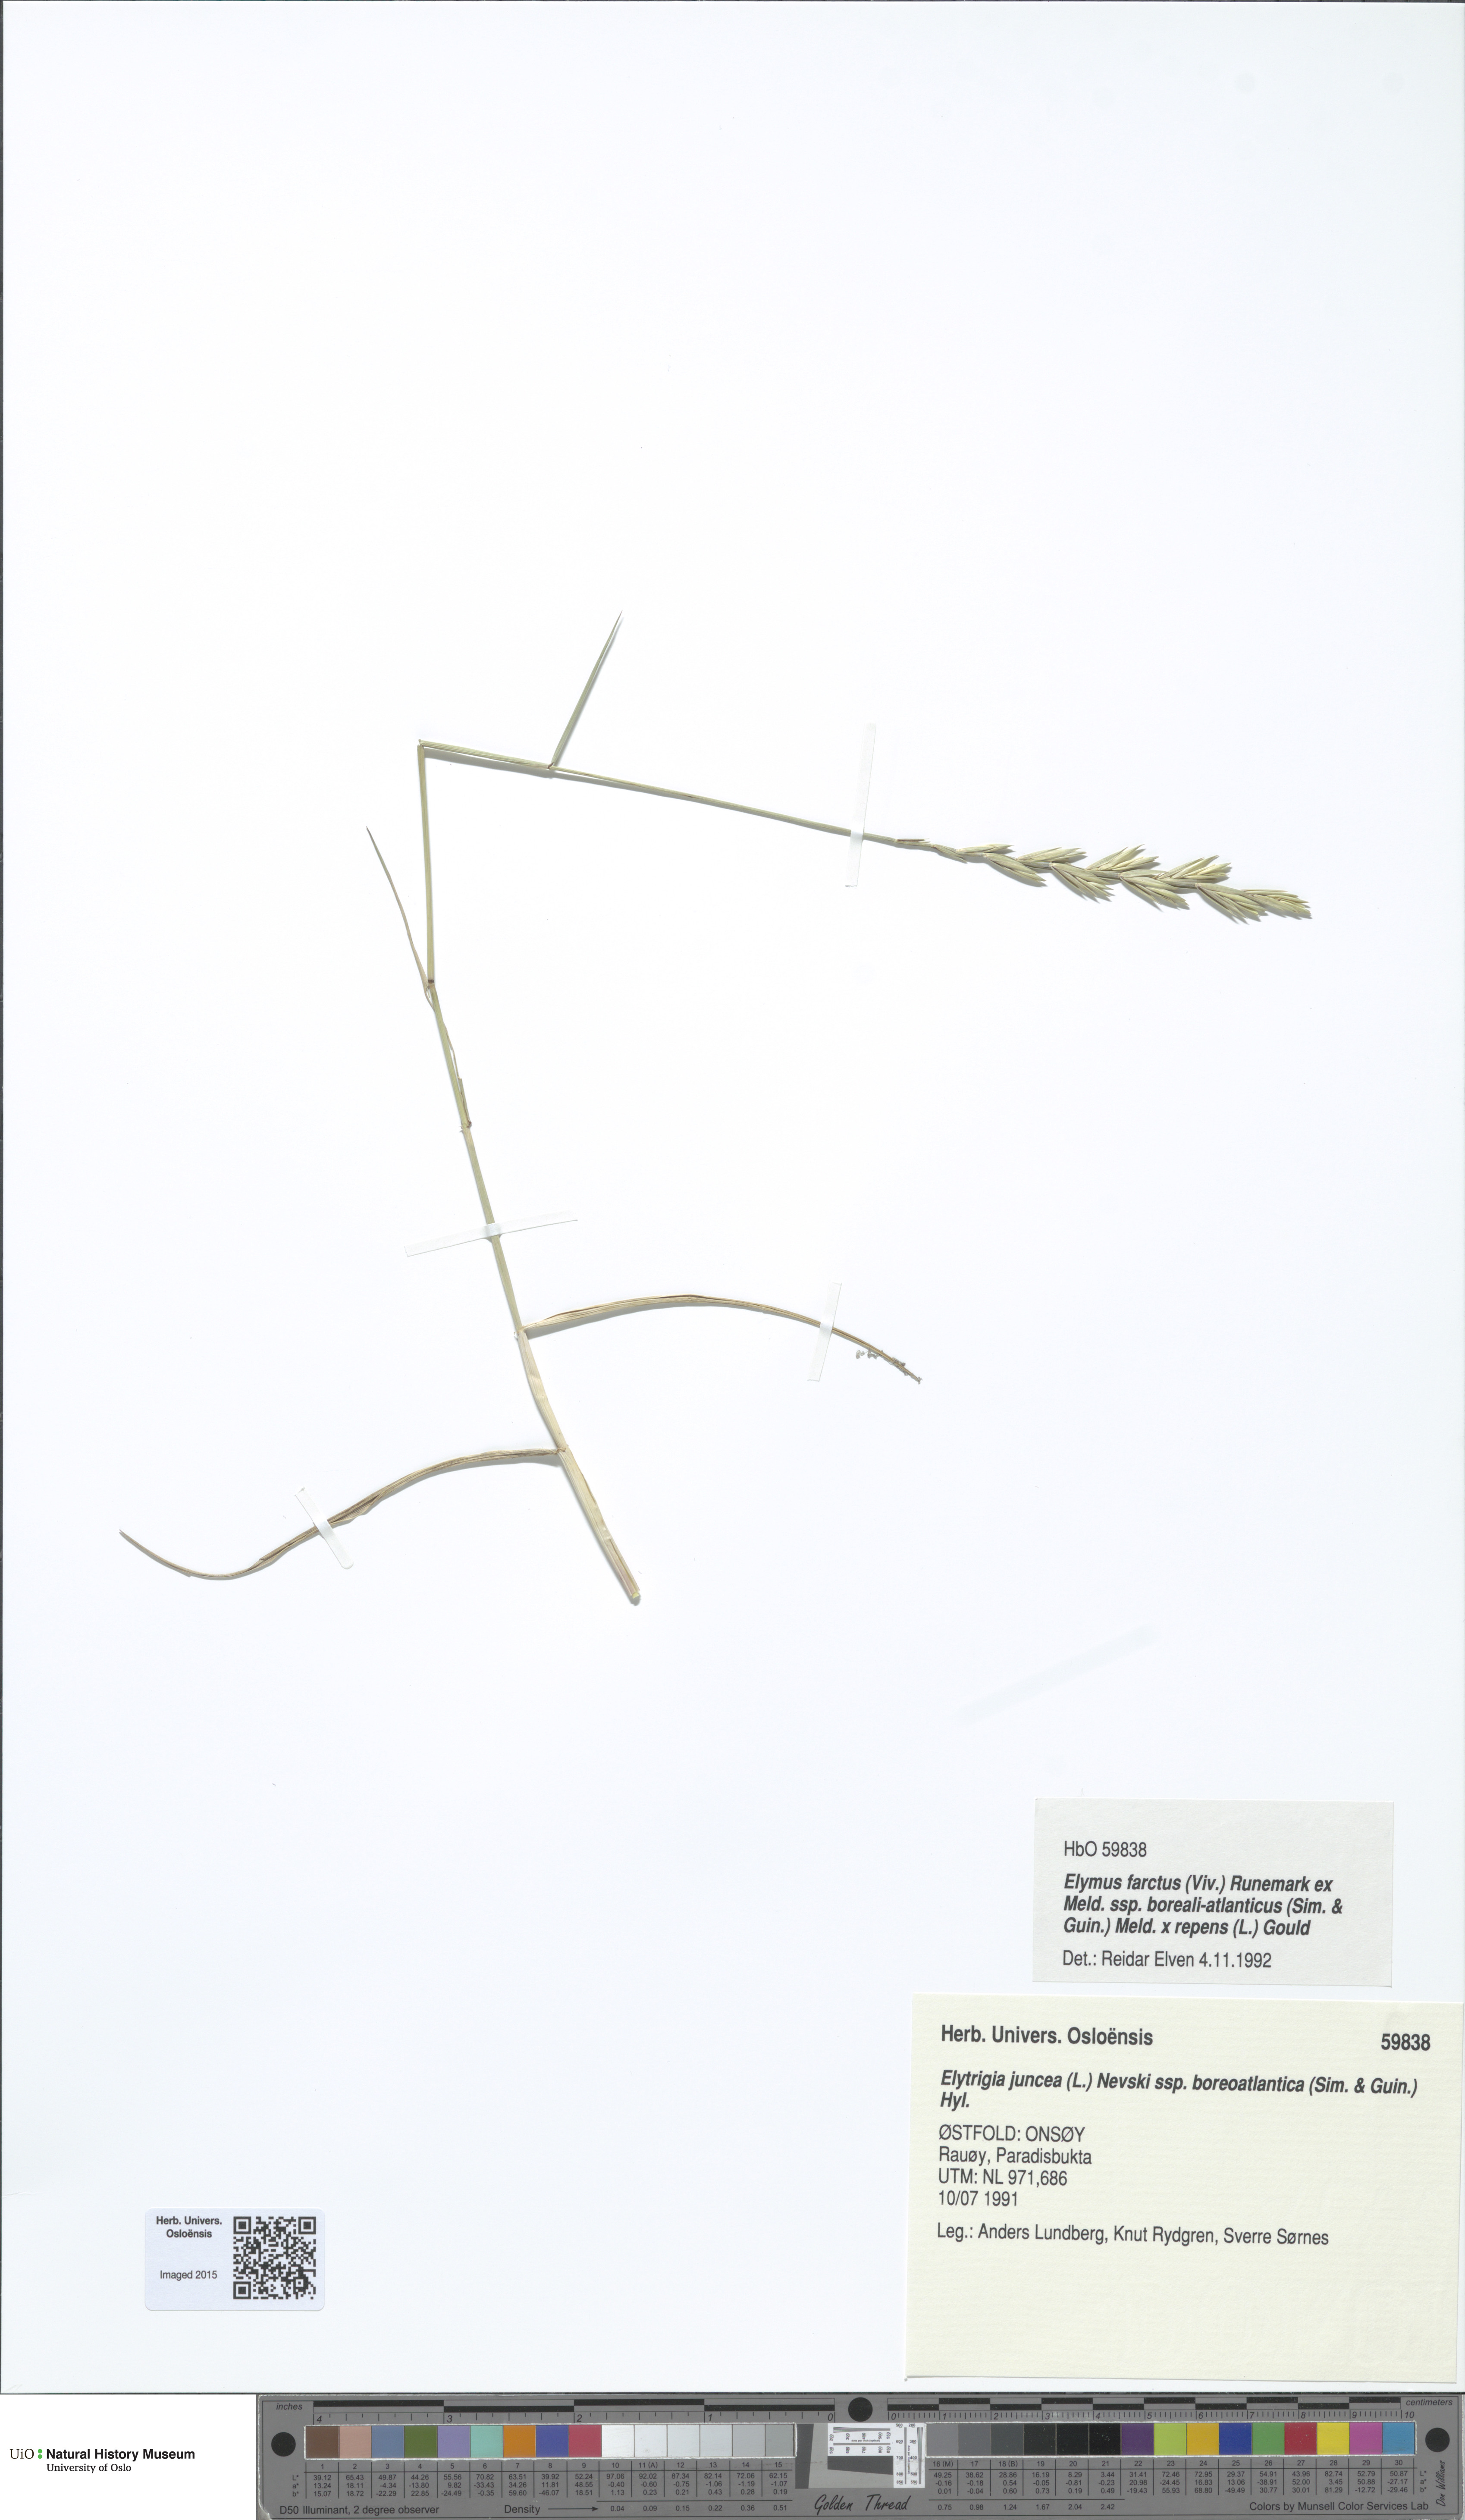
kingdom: Plantae
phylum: Tracheophyta
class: Liliopsida
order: Poales
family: Poaceae
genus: Elymus
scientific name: Elymus
